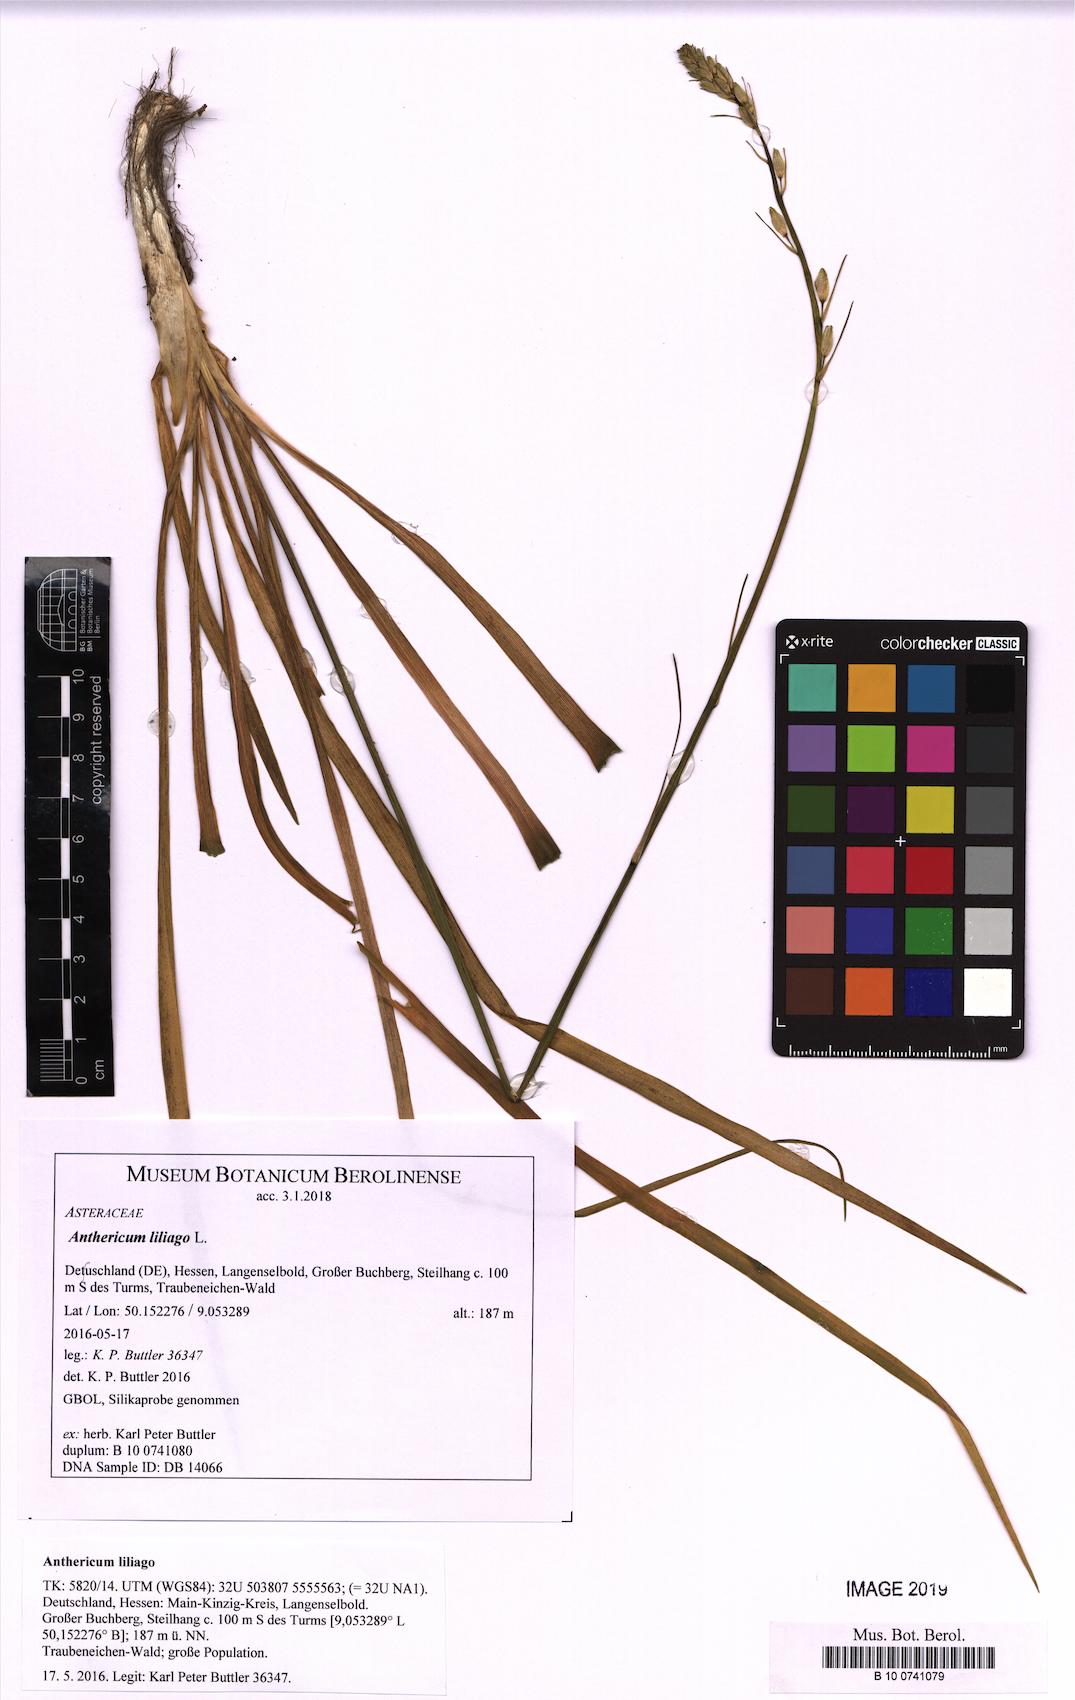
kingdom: Plantae
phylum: Tracheophyta
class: Liliopsida
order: Asparagales
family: Asparagaceae
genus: Anthericum
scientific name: Anthericum liliago
